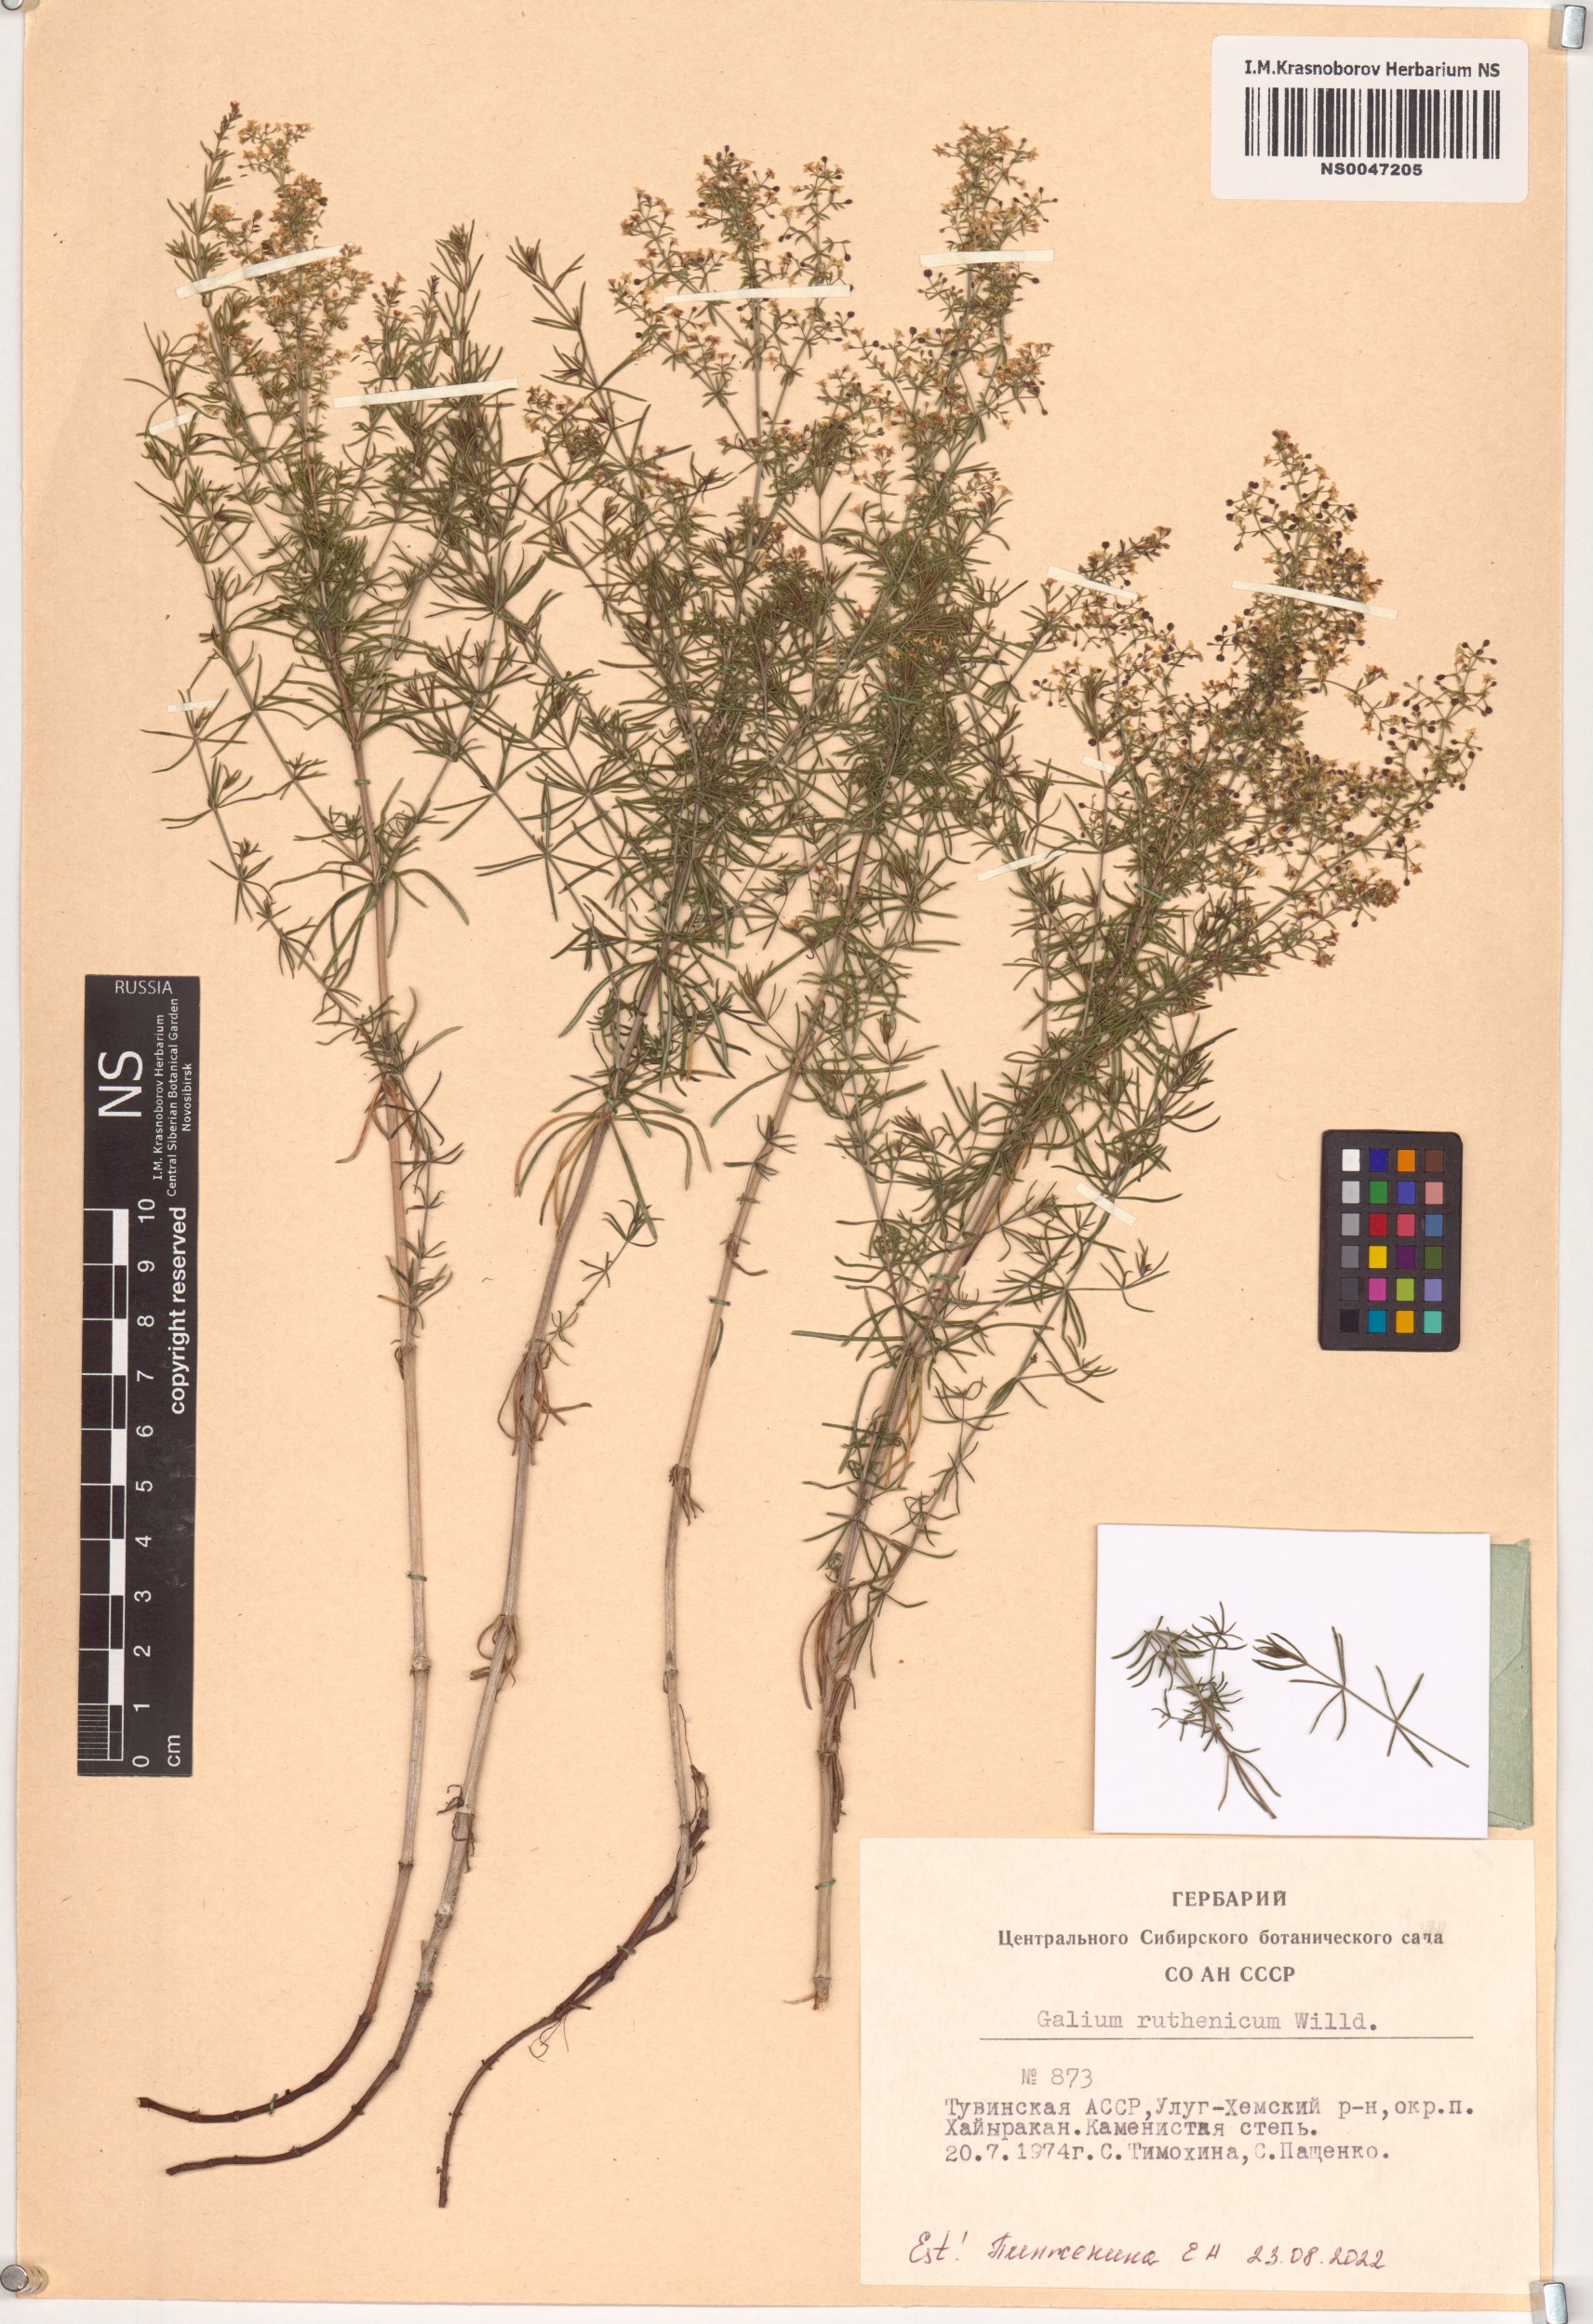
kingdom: Plantae
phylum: Tracheophyta
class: Magnoliopsida
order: Gentianales
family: Rubiaceae
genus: Galium
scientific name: Galium verum
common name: Lady's bedstraw
